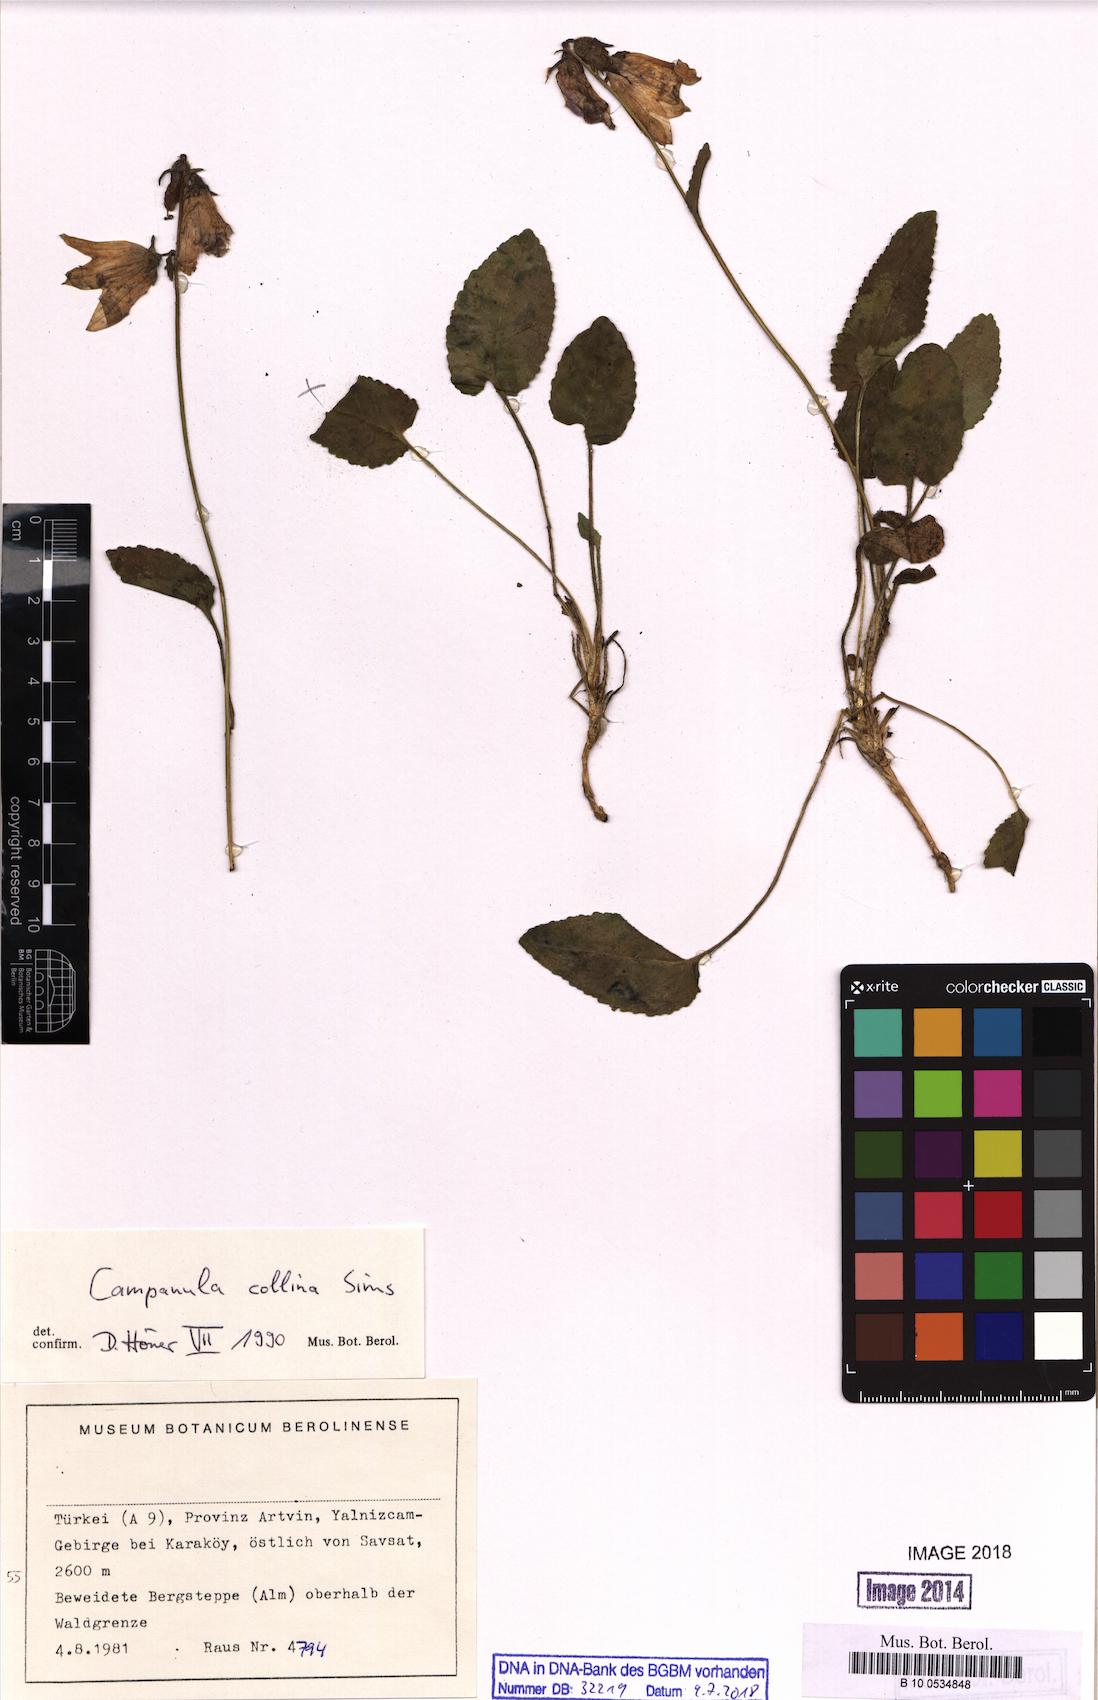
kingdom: Plantae
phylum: Tracheophyta
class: Magnoliopsida
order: Asterales
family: Campanulaceae
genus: Campanula
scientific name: Campanula collina
